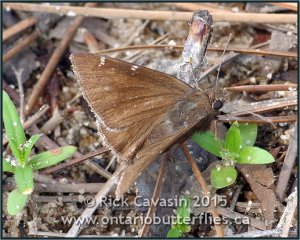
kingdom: Animalia
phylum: Arthropoda
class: Insecta
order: Lepidoptera
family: Hesperiidae
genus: Thorybes
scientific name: Thorybes mexicana
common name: Confused Cloudywing
